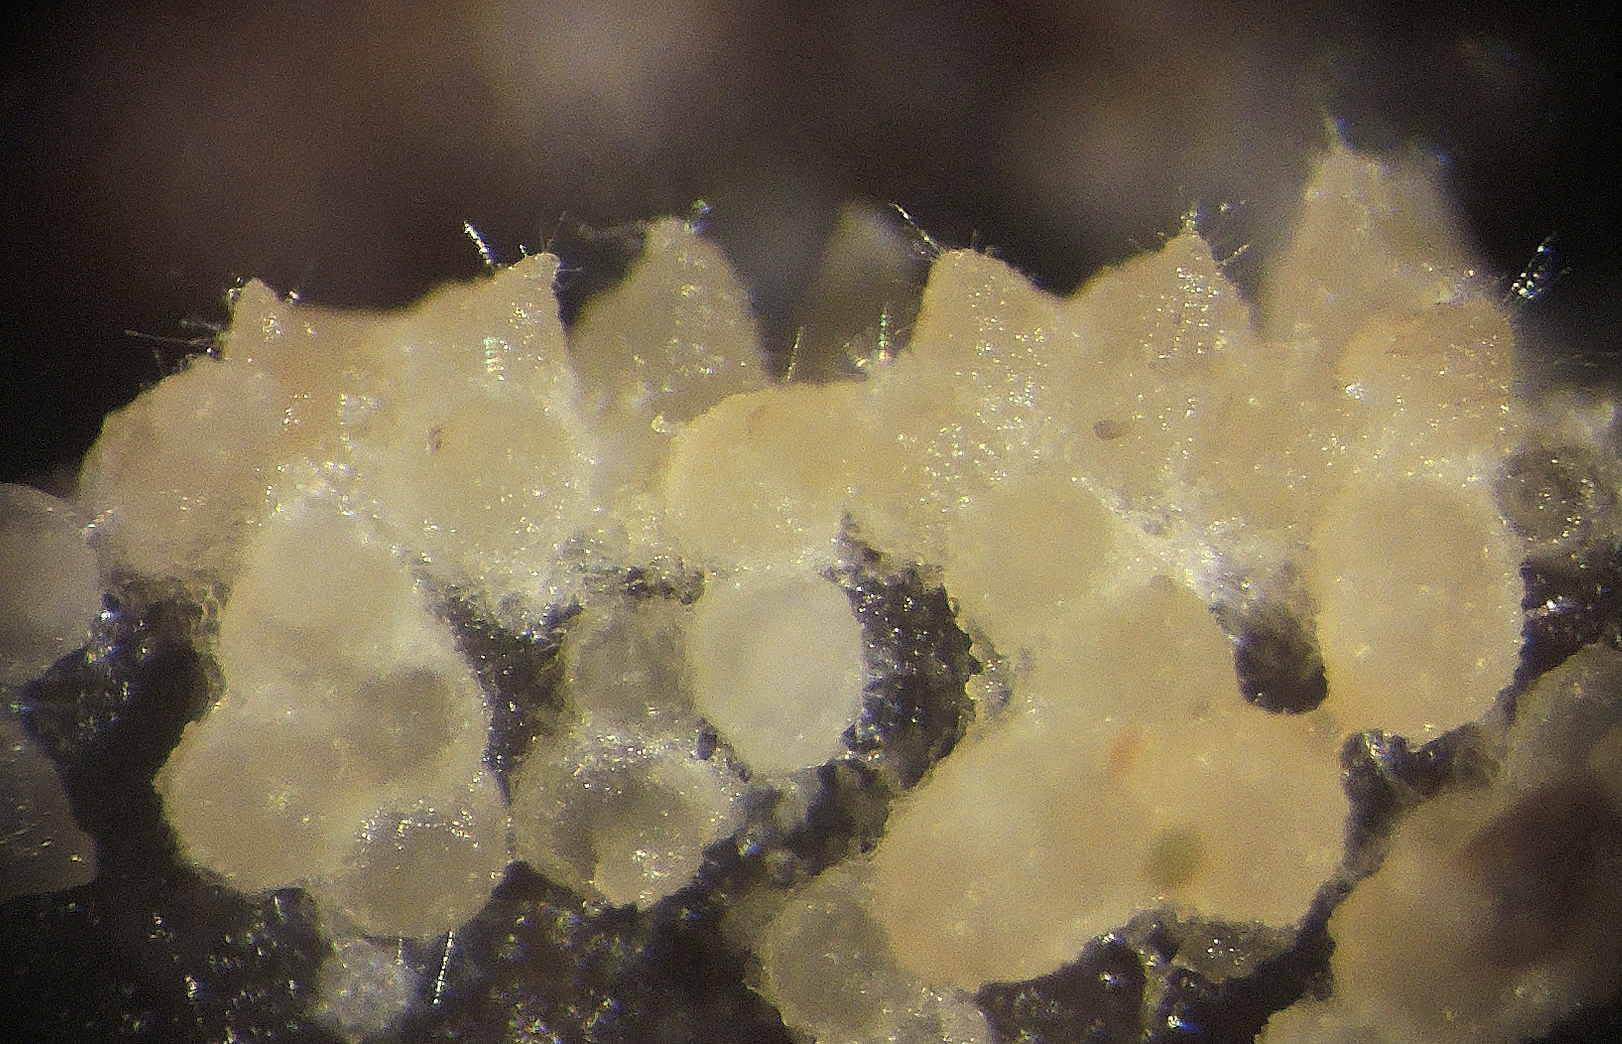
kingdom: Fungi
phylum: Ascomycota
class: Sordariomycetes
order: Hypocreales
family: Hypocreaceae
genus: Hypomyces
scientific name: Hypomyces
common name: snylteskorpe
